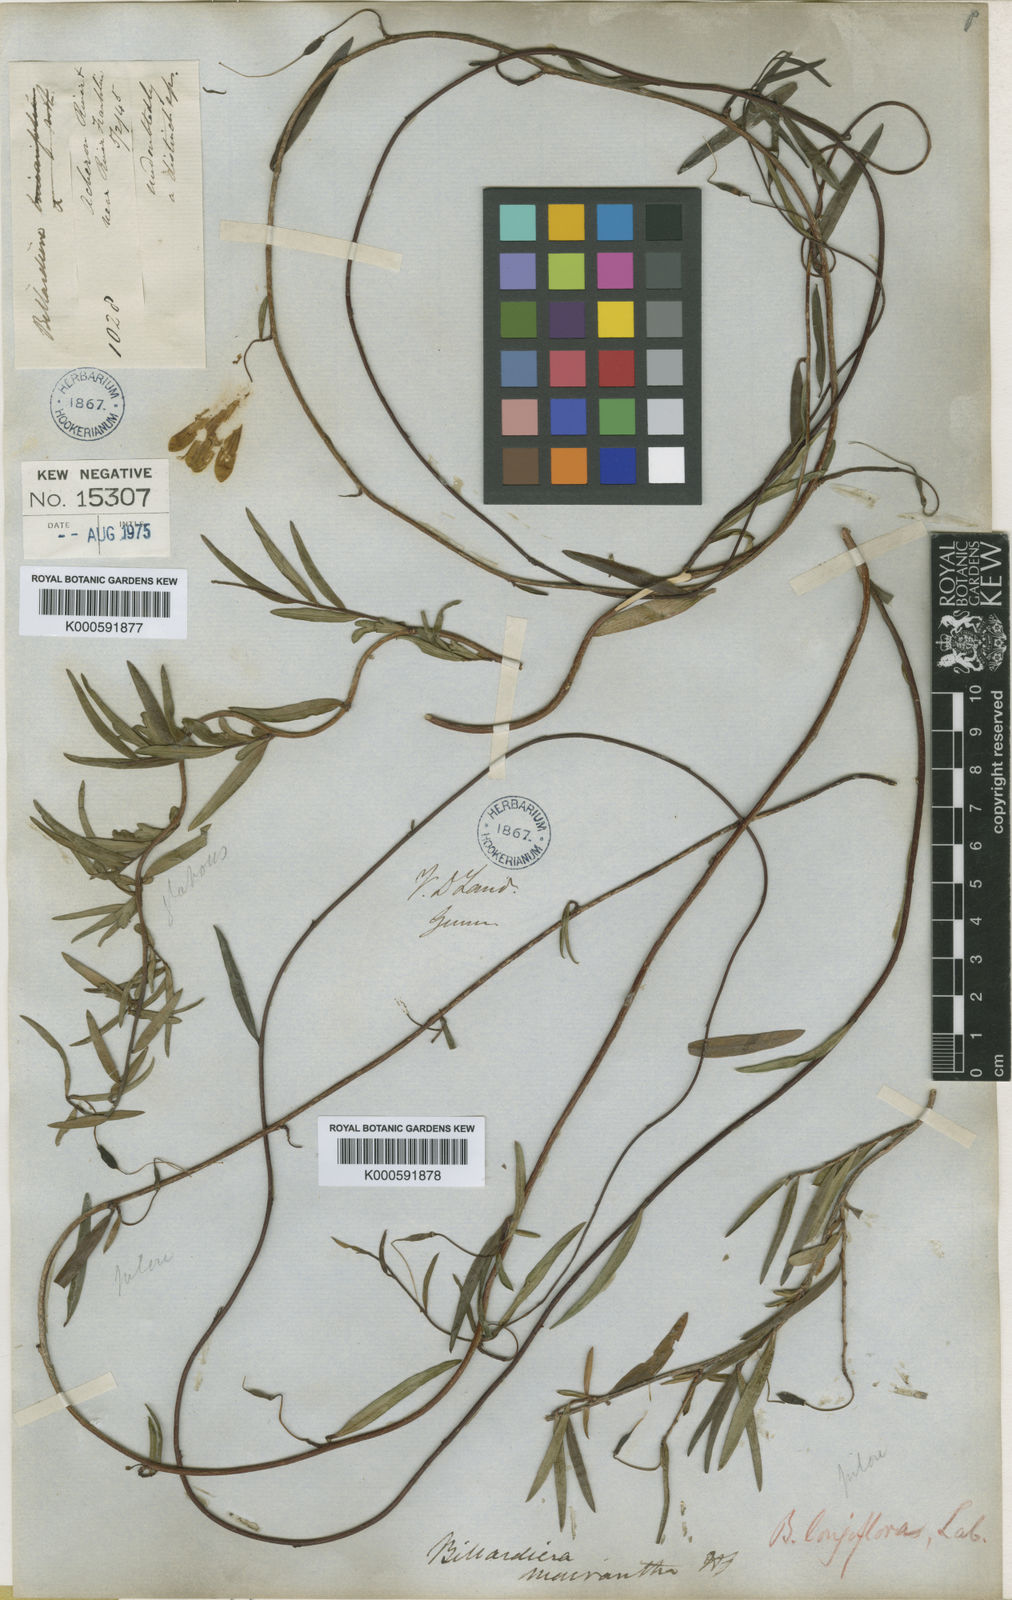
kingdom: Plantae
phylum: Tracheophyta
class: Magnoliopsida
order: Apiales
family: Pittosporaceae
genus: Billardiera
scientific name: Billardiera longiflora
